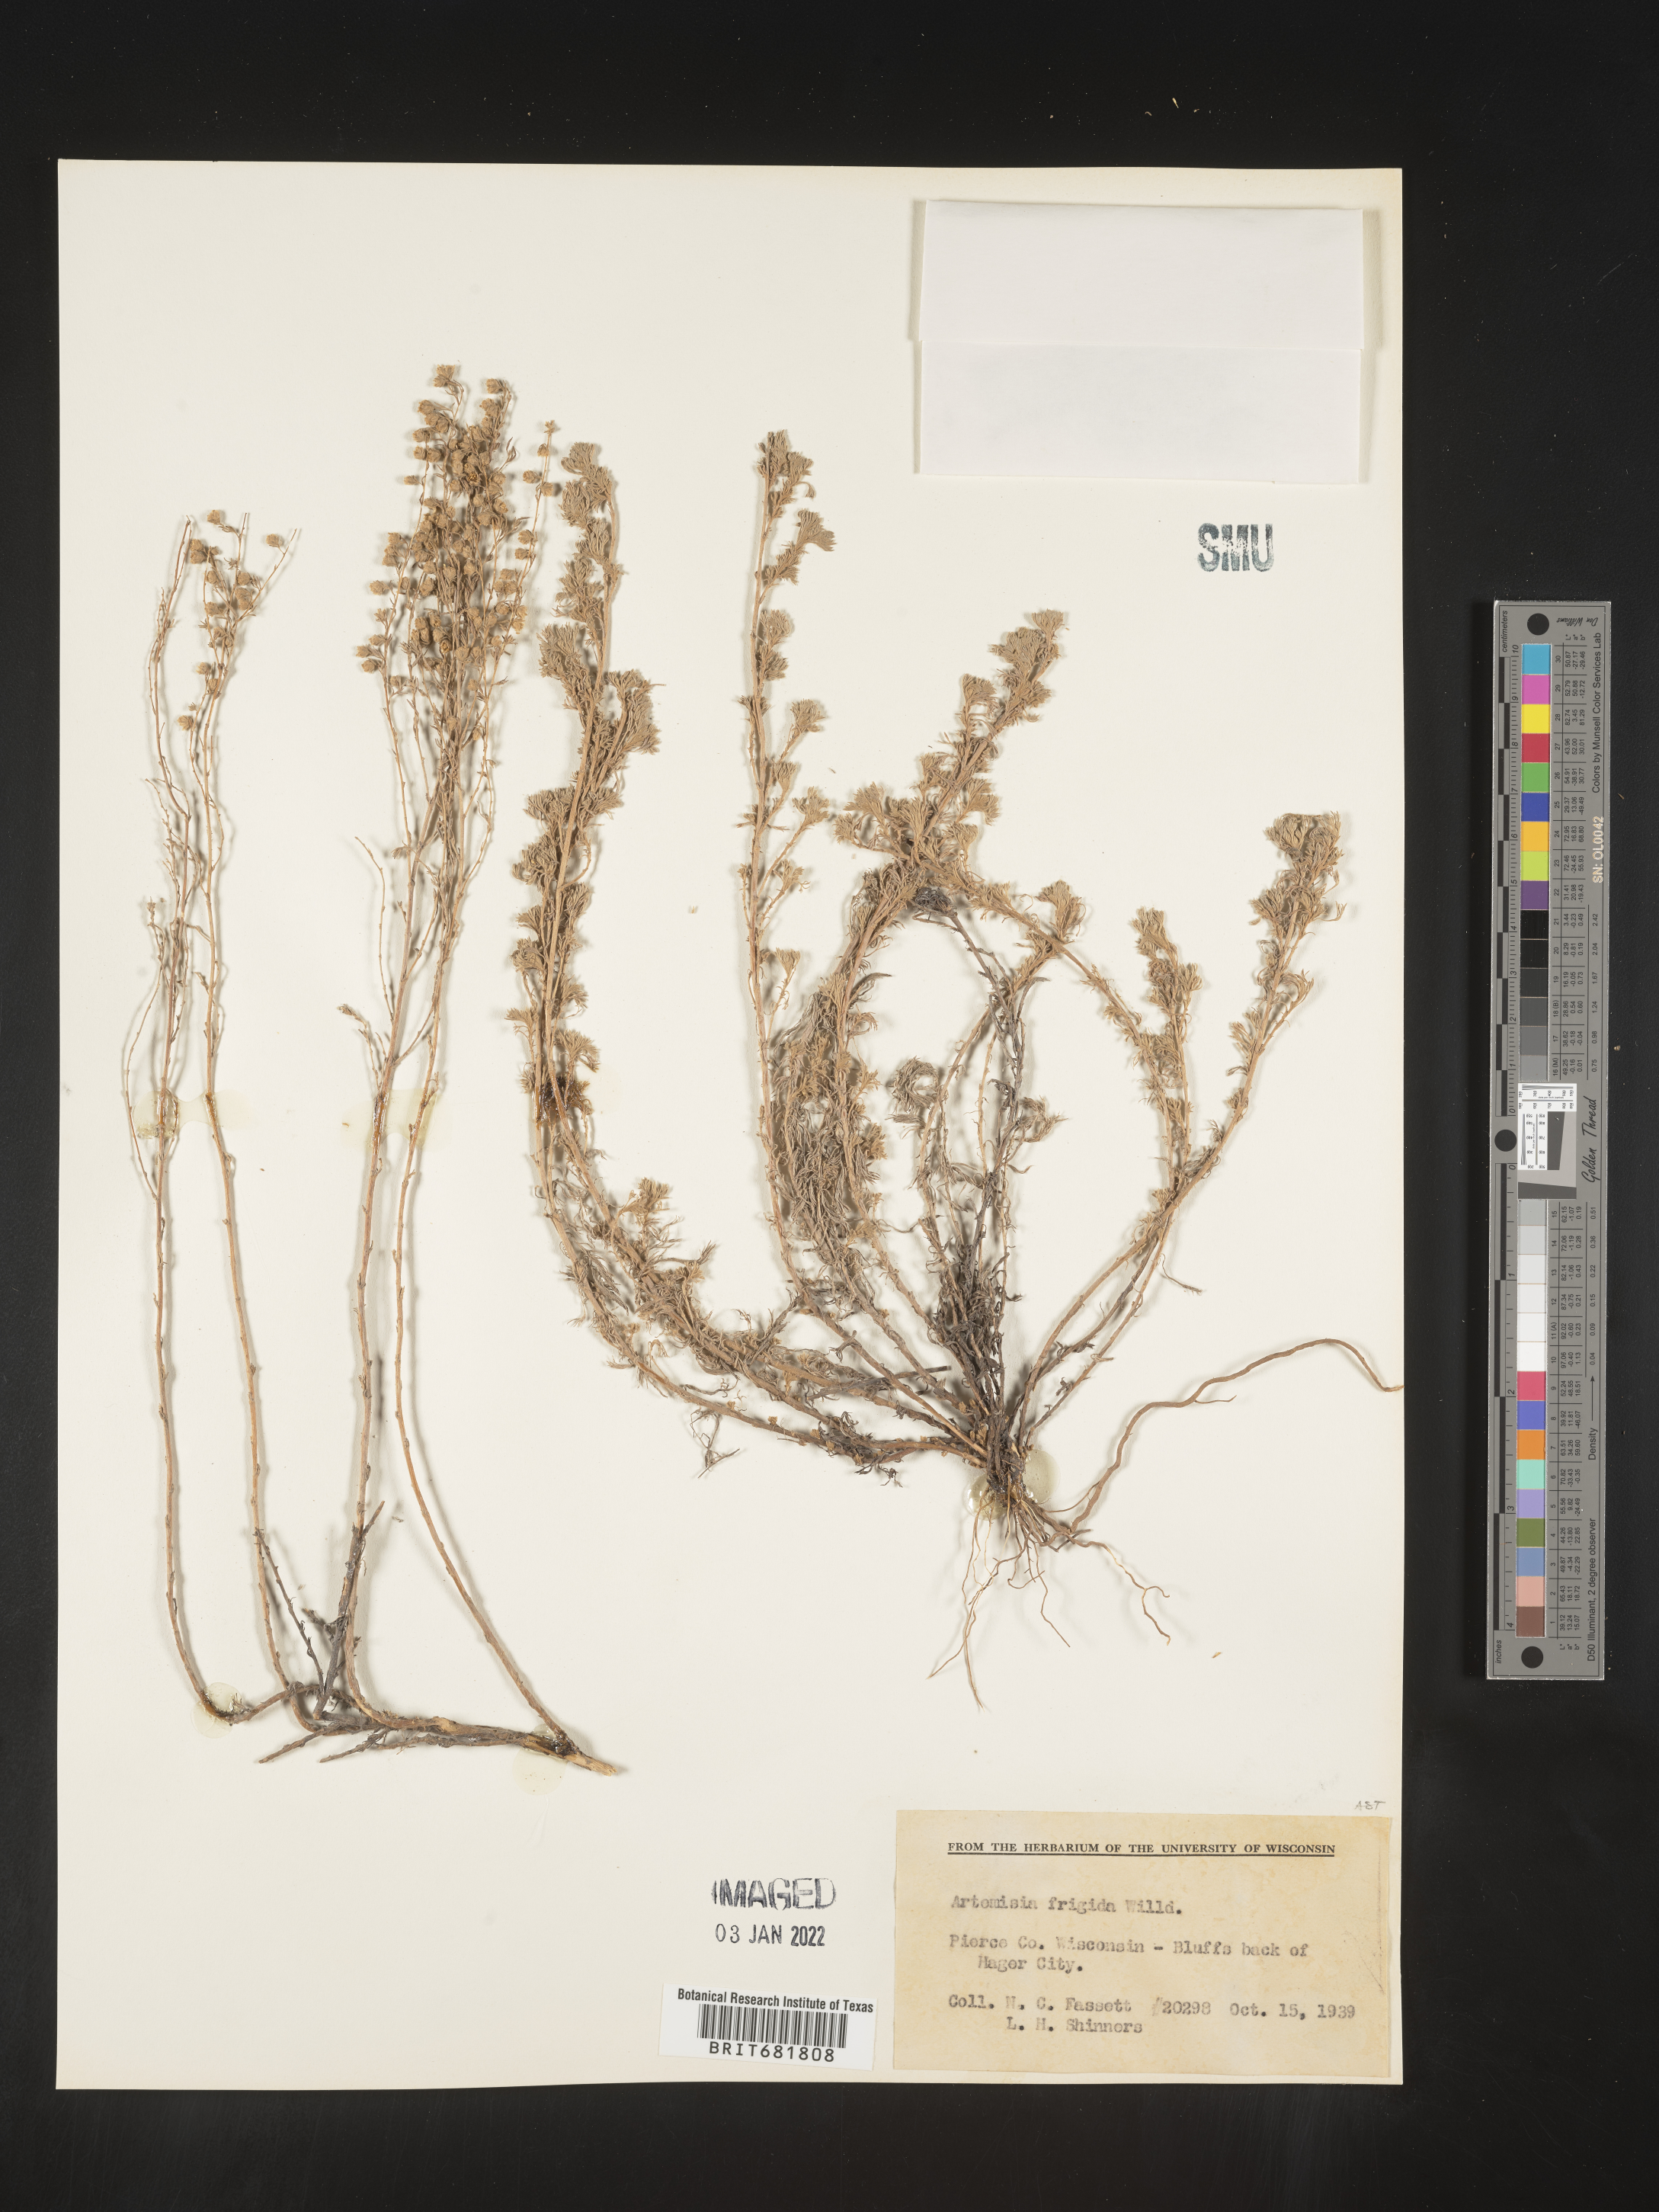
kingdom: Plantae
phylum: Tracheophyta
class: Magnoliopsida
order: Asterales
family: Asteraceae
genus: Artemisia
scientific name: Artemisia frigida
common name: Prairie sagewort
